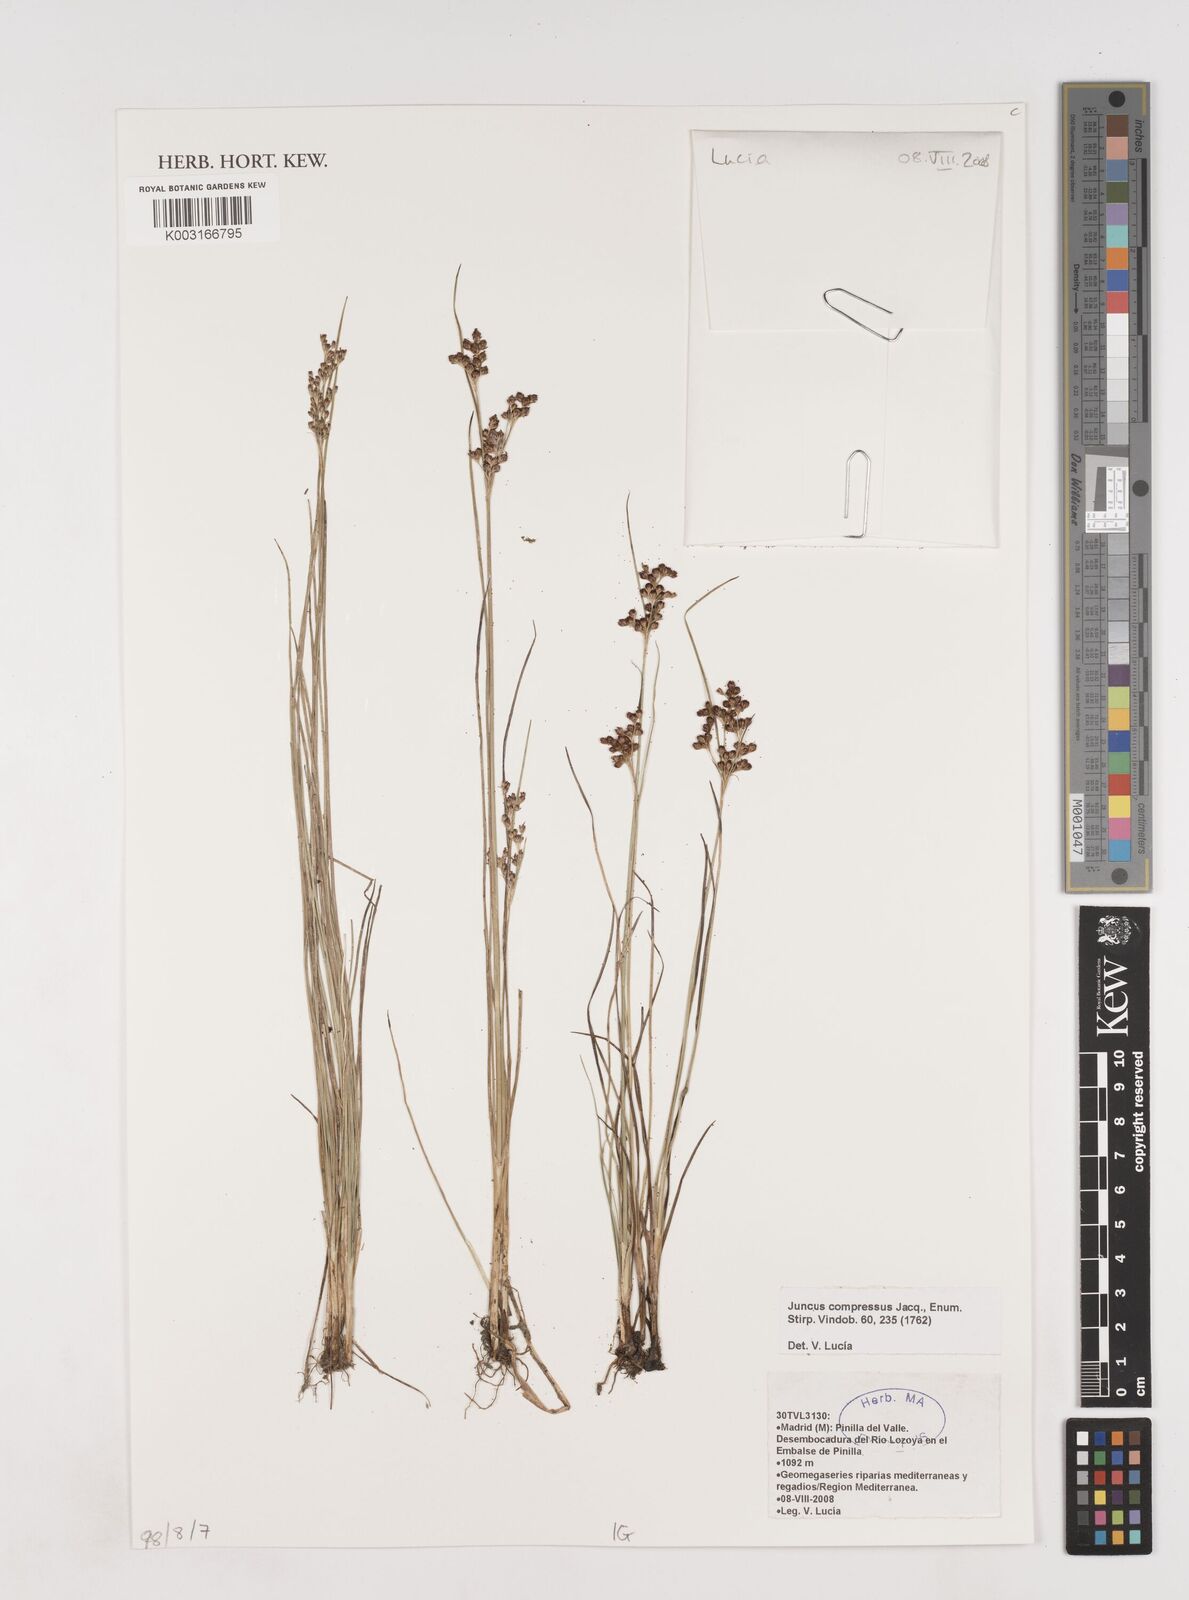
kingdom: Plantae
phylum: Tracheophyta
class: Liliopsida
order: Poales
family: Juncaceae
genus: Juncus
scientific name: Juncus compressus
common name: Round-fruited rush
